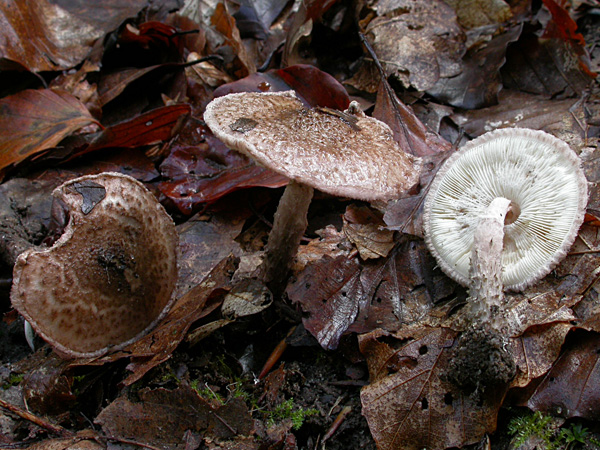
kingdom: Fungi
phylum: Basidiomycota
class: Agaricomycetes
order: Agaricales
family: Agaricaceae
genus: Lepiota
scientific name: Lepiota fuscovinacea
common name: vinrød parasolhat
